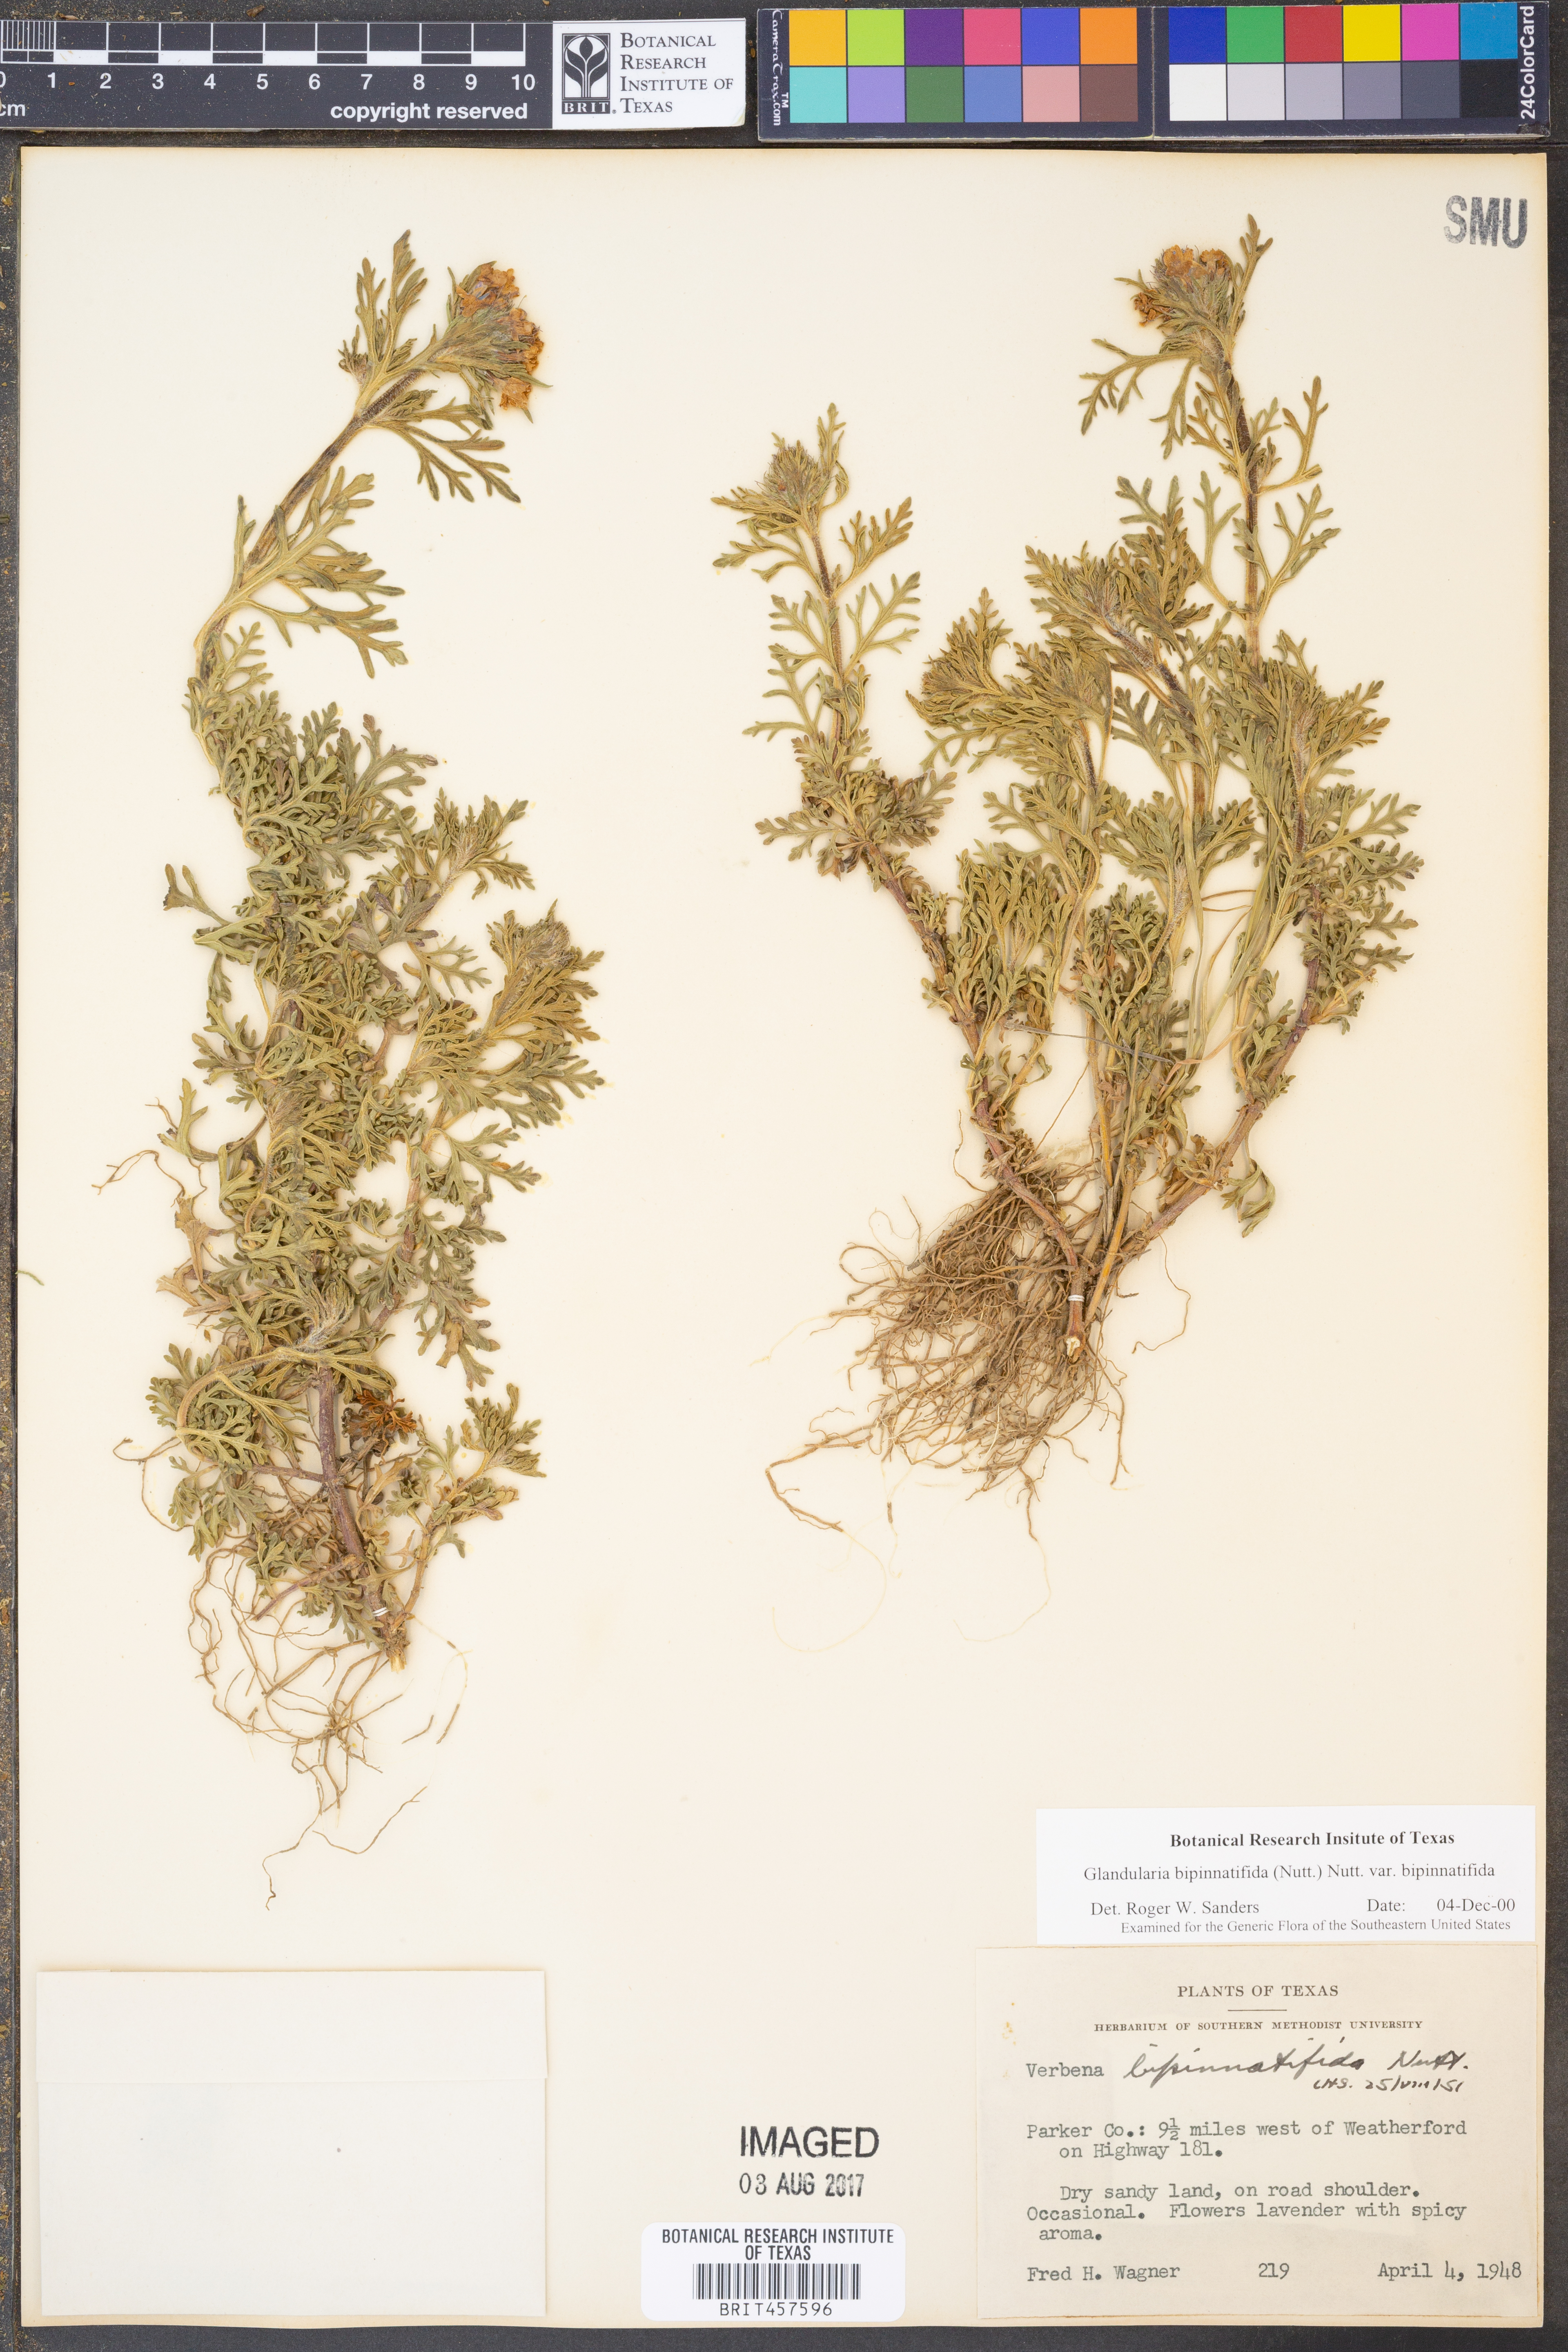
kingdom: Plantae
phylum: Tracheophyta
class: Magnoliopsida
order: Lamiales
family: Verbenaceae
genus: Verbena
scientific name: Verbena bipinnatifida
